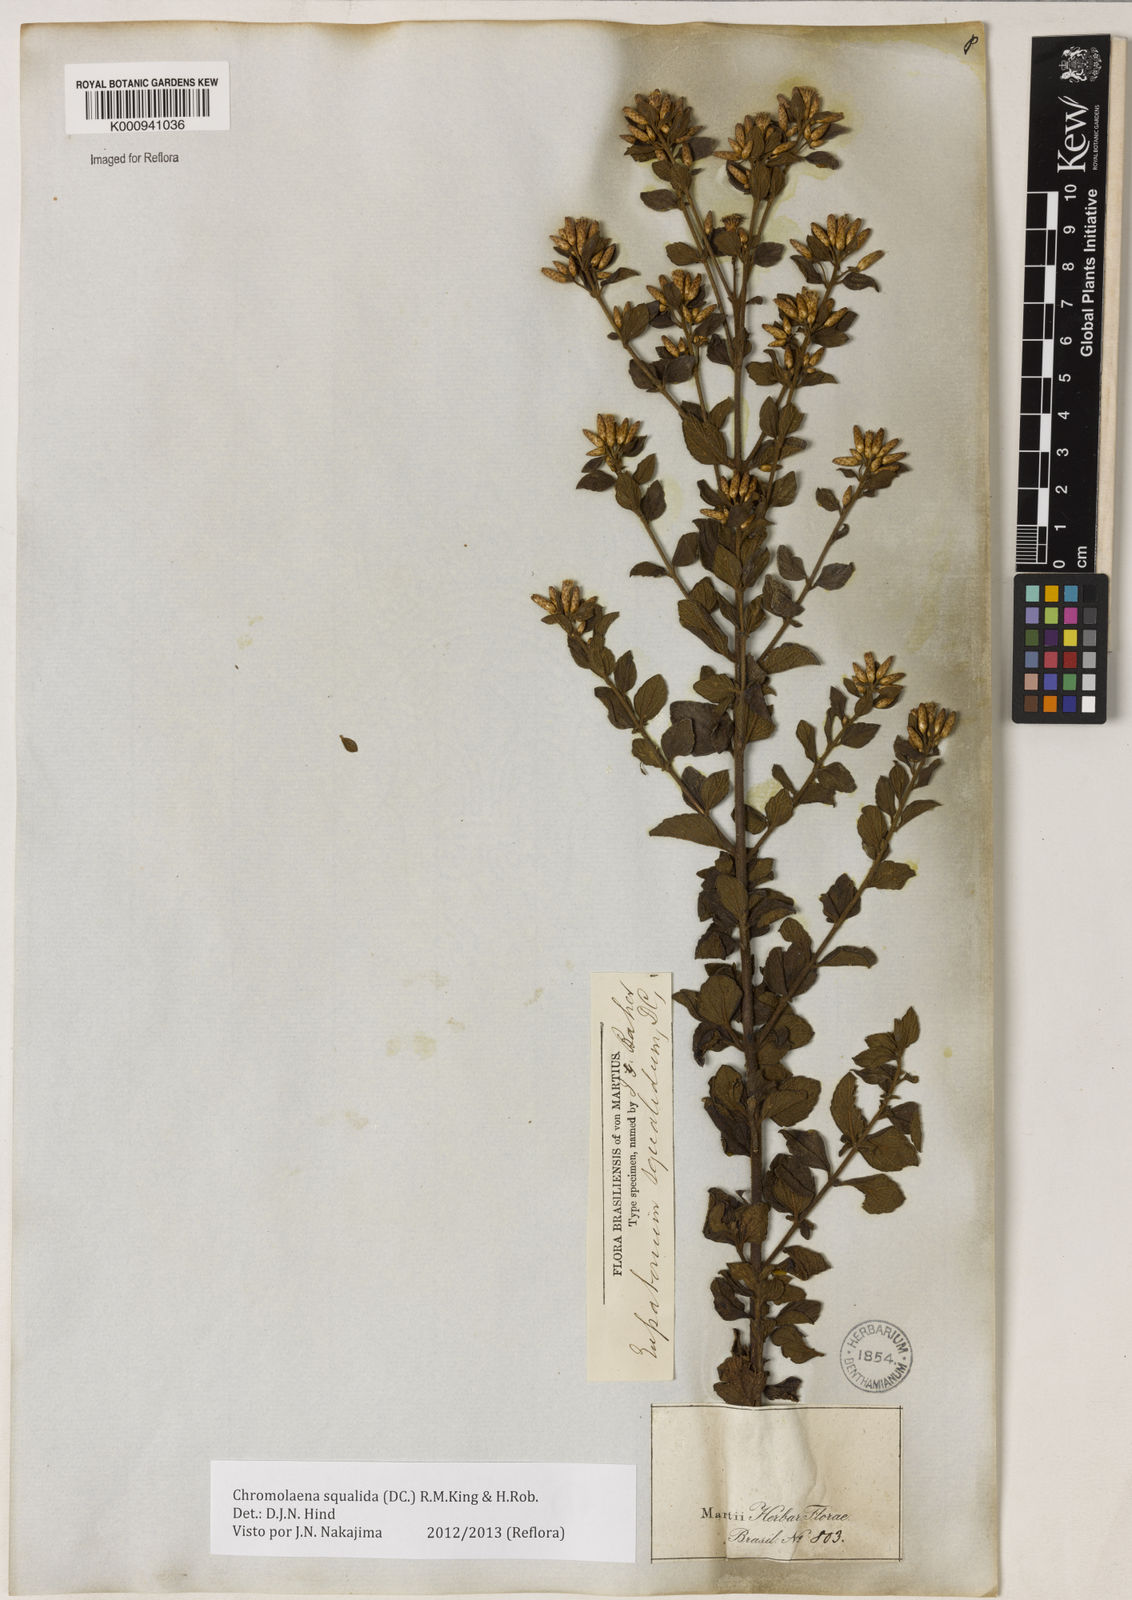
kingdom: Plantae
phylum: Tracheophyta
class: Magnoliopsida
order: Asterales
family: Asteraceae
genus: Chromolaena
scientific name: Chromolaena squalida
